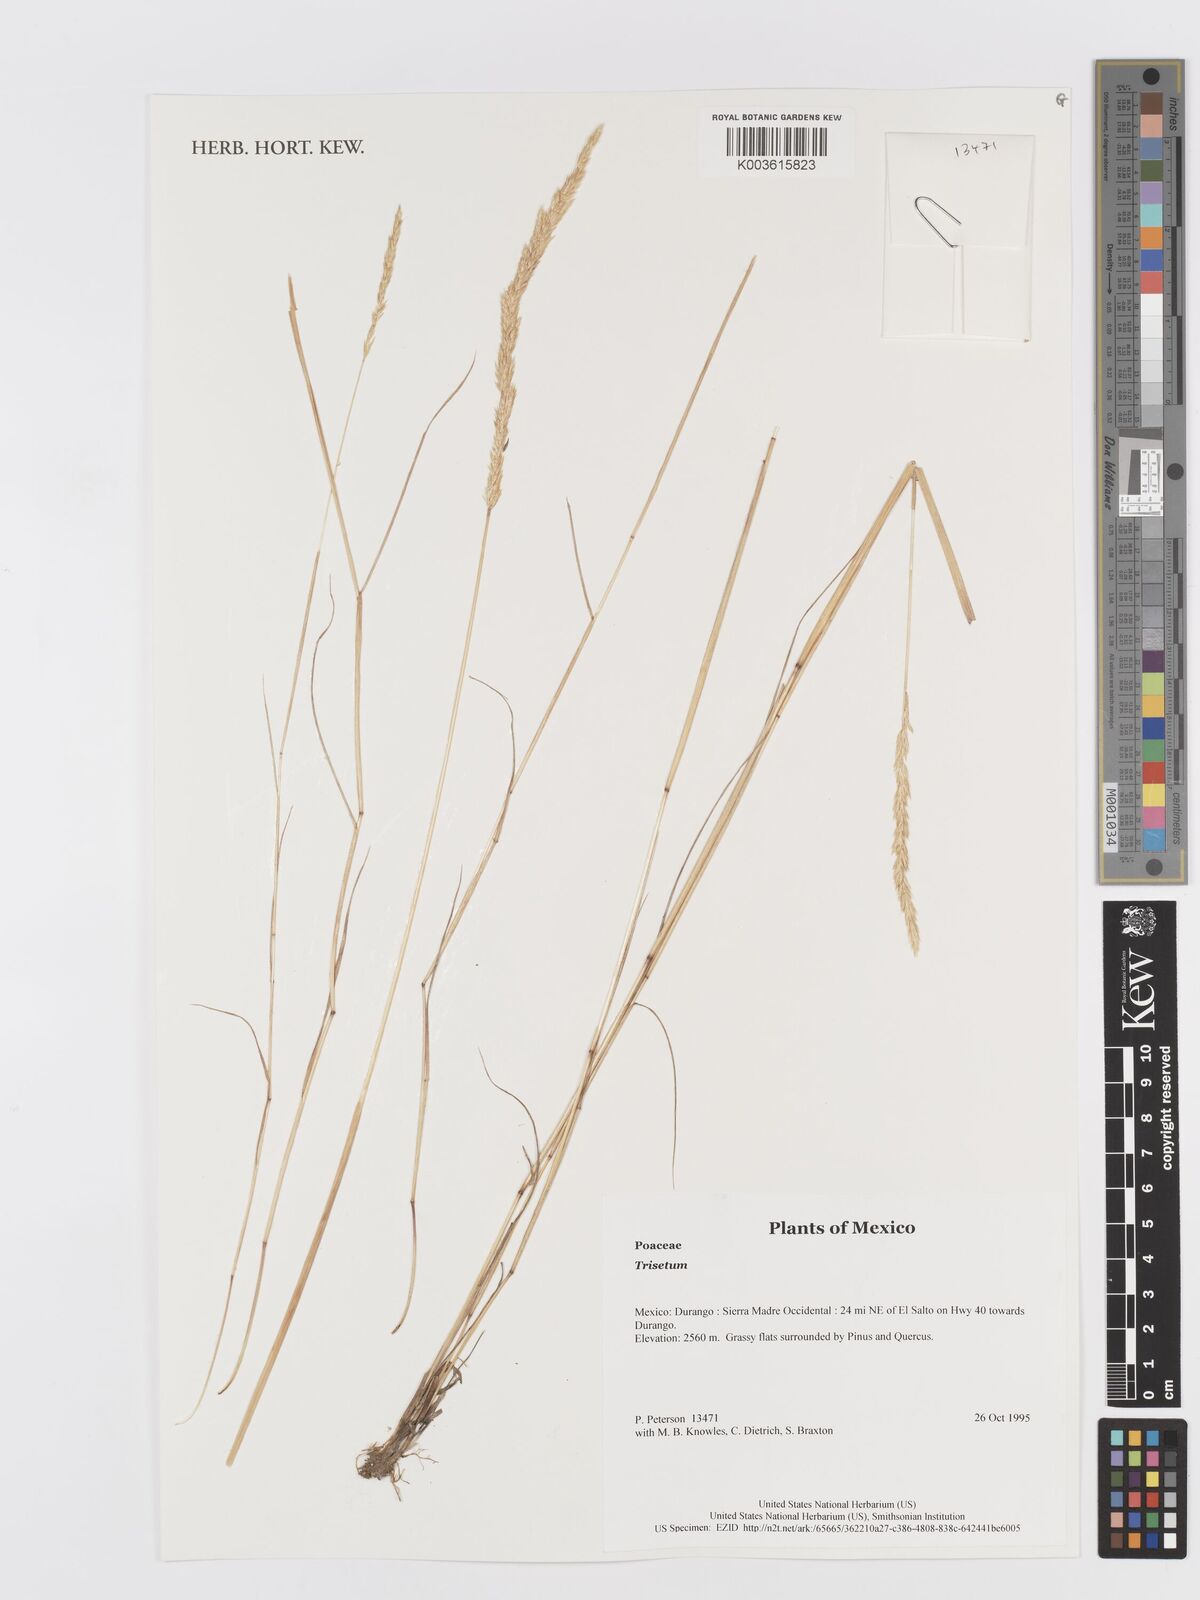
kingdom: Plantae
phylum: Tracheophyta
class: Liliopsida
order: Poales
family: Poaceae
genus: Trisetum
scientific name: Trisetum
